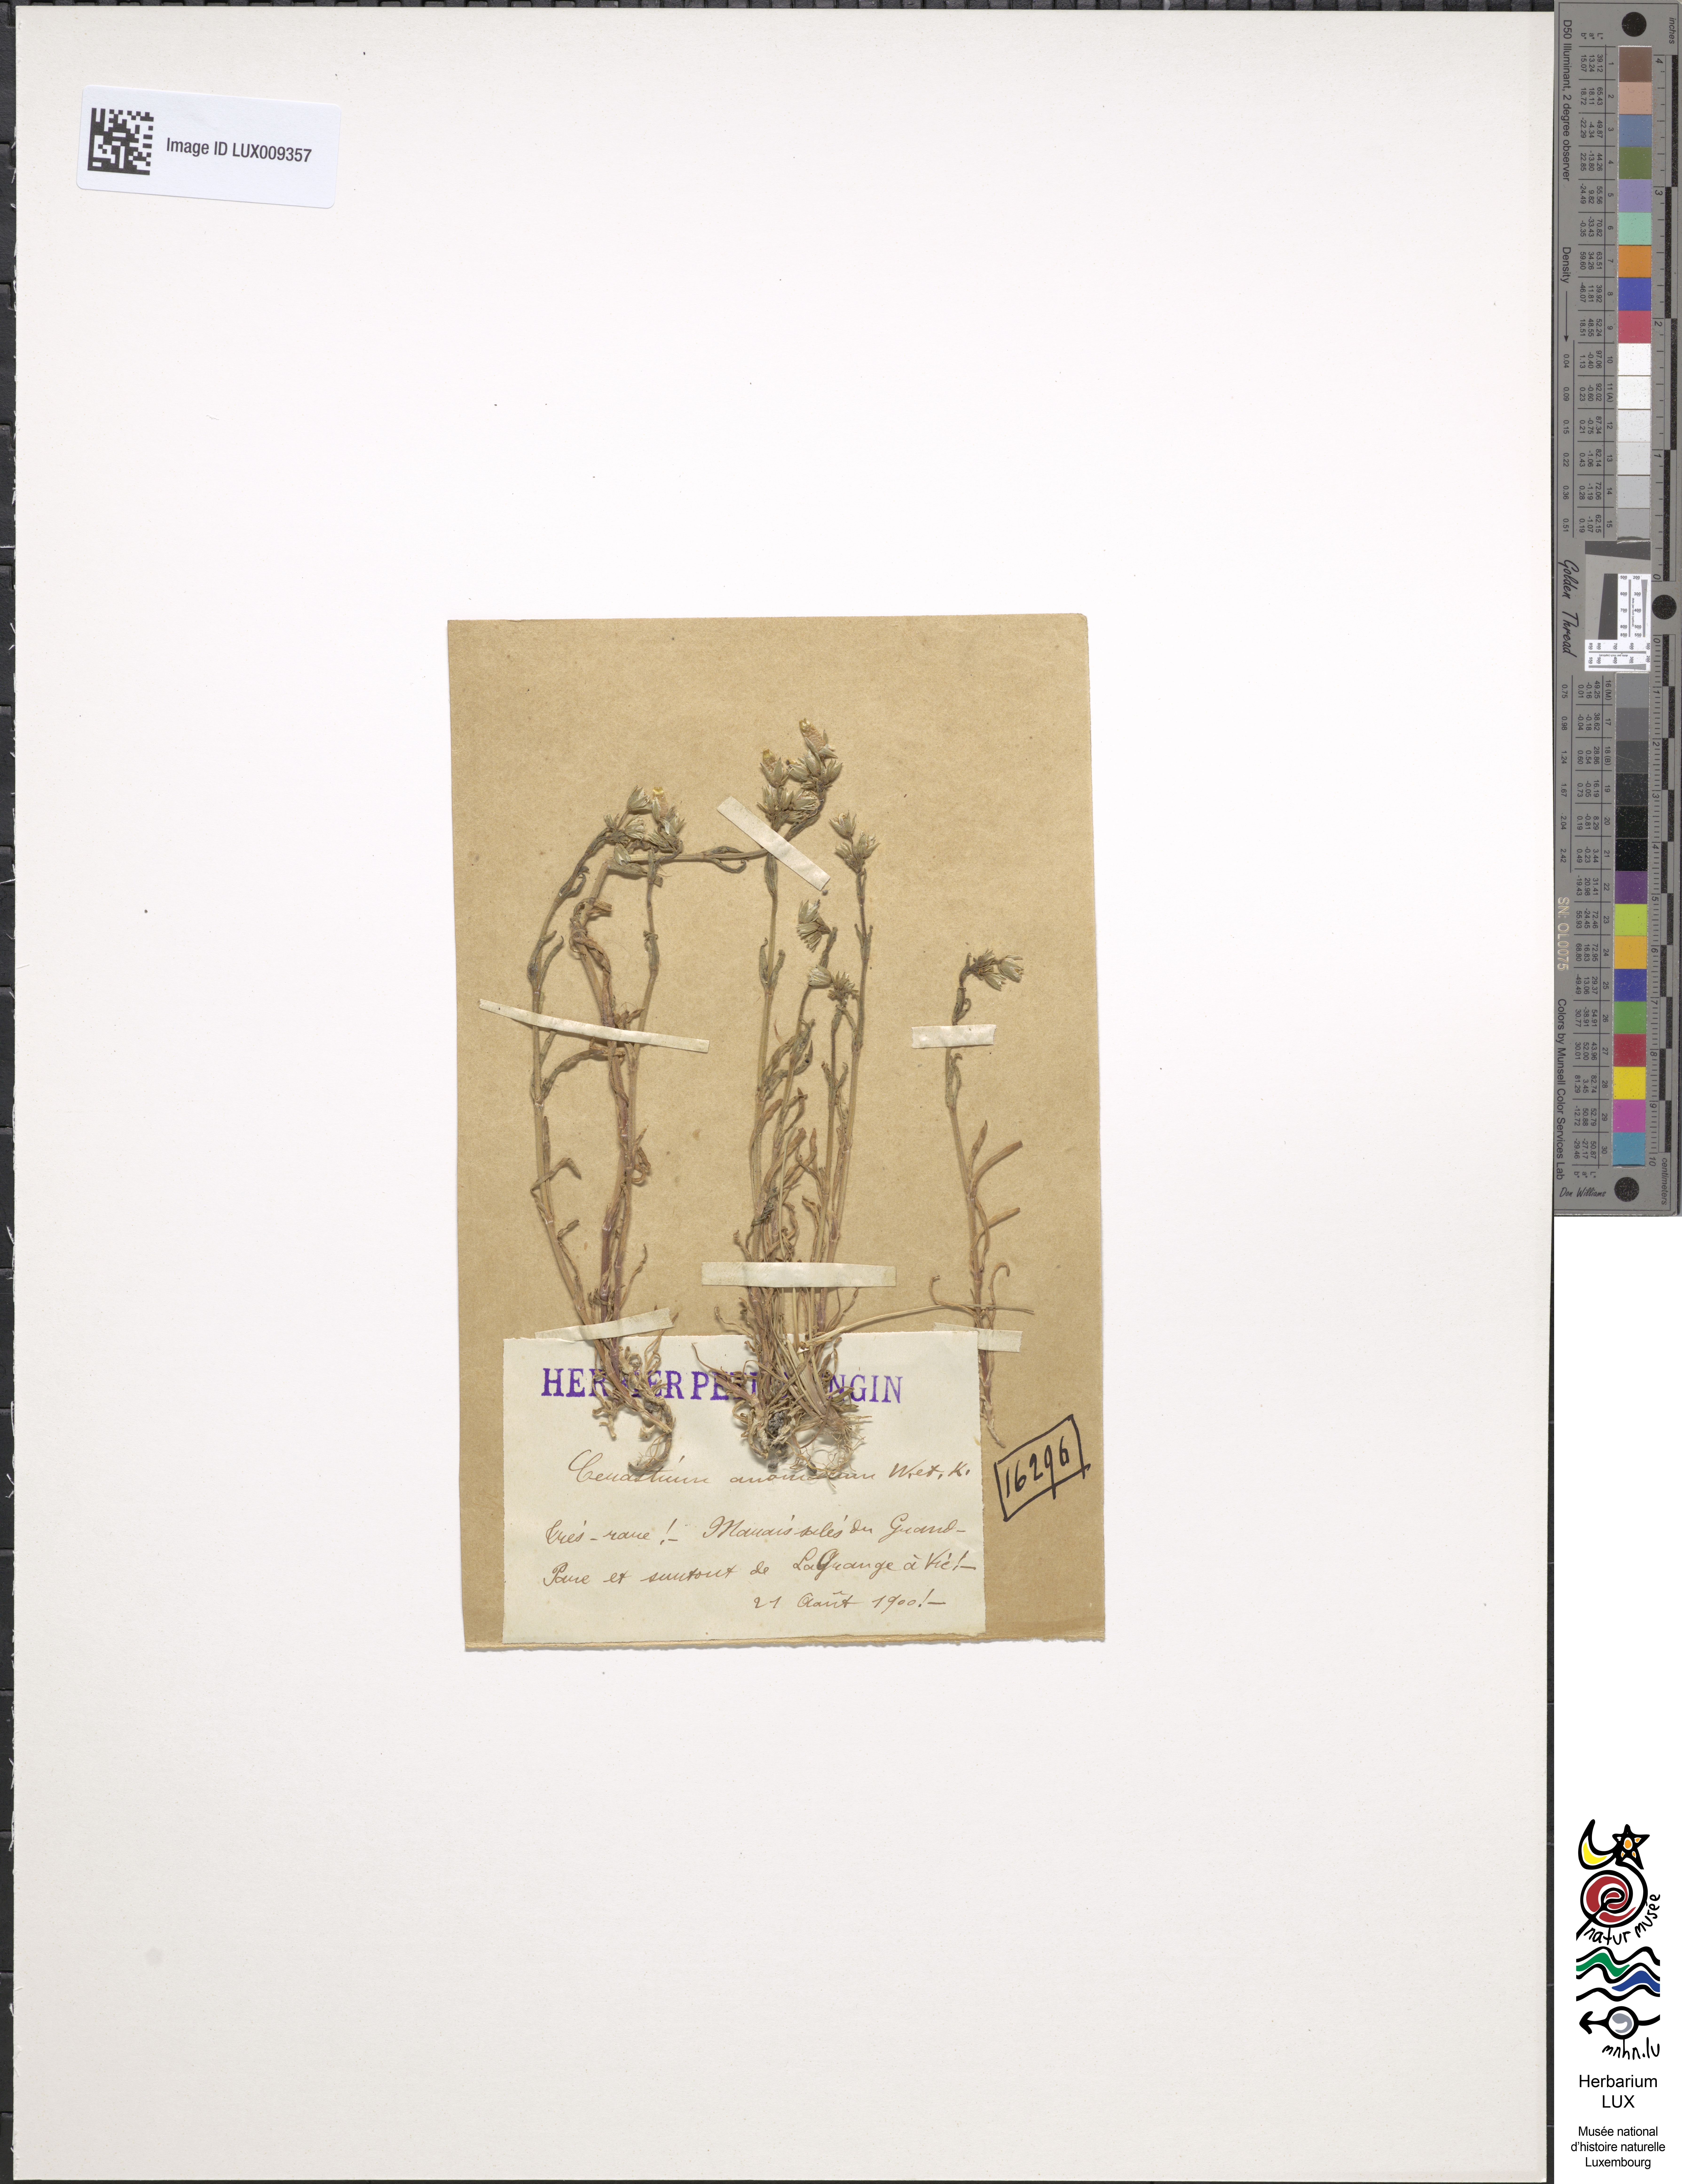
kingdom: Plantae
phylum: Tracheophyta
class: Magnoliopsida
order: Caryophyllales
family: Caryophyllaceae
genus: Dichodon
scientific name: Dichodon viscidum
